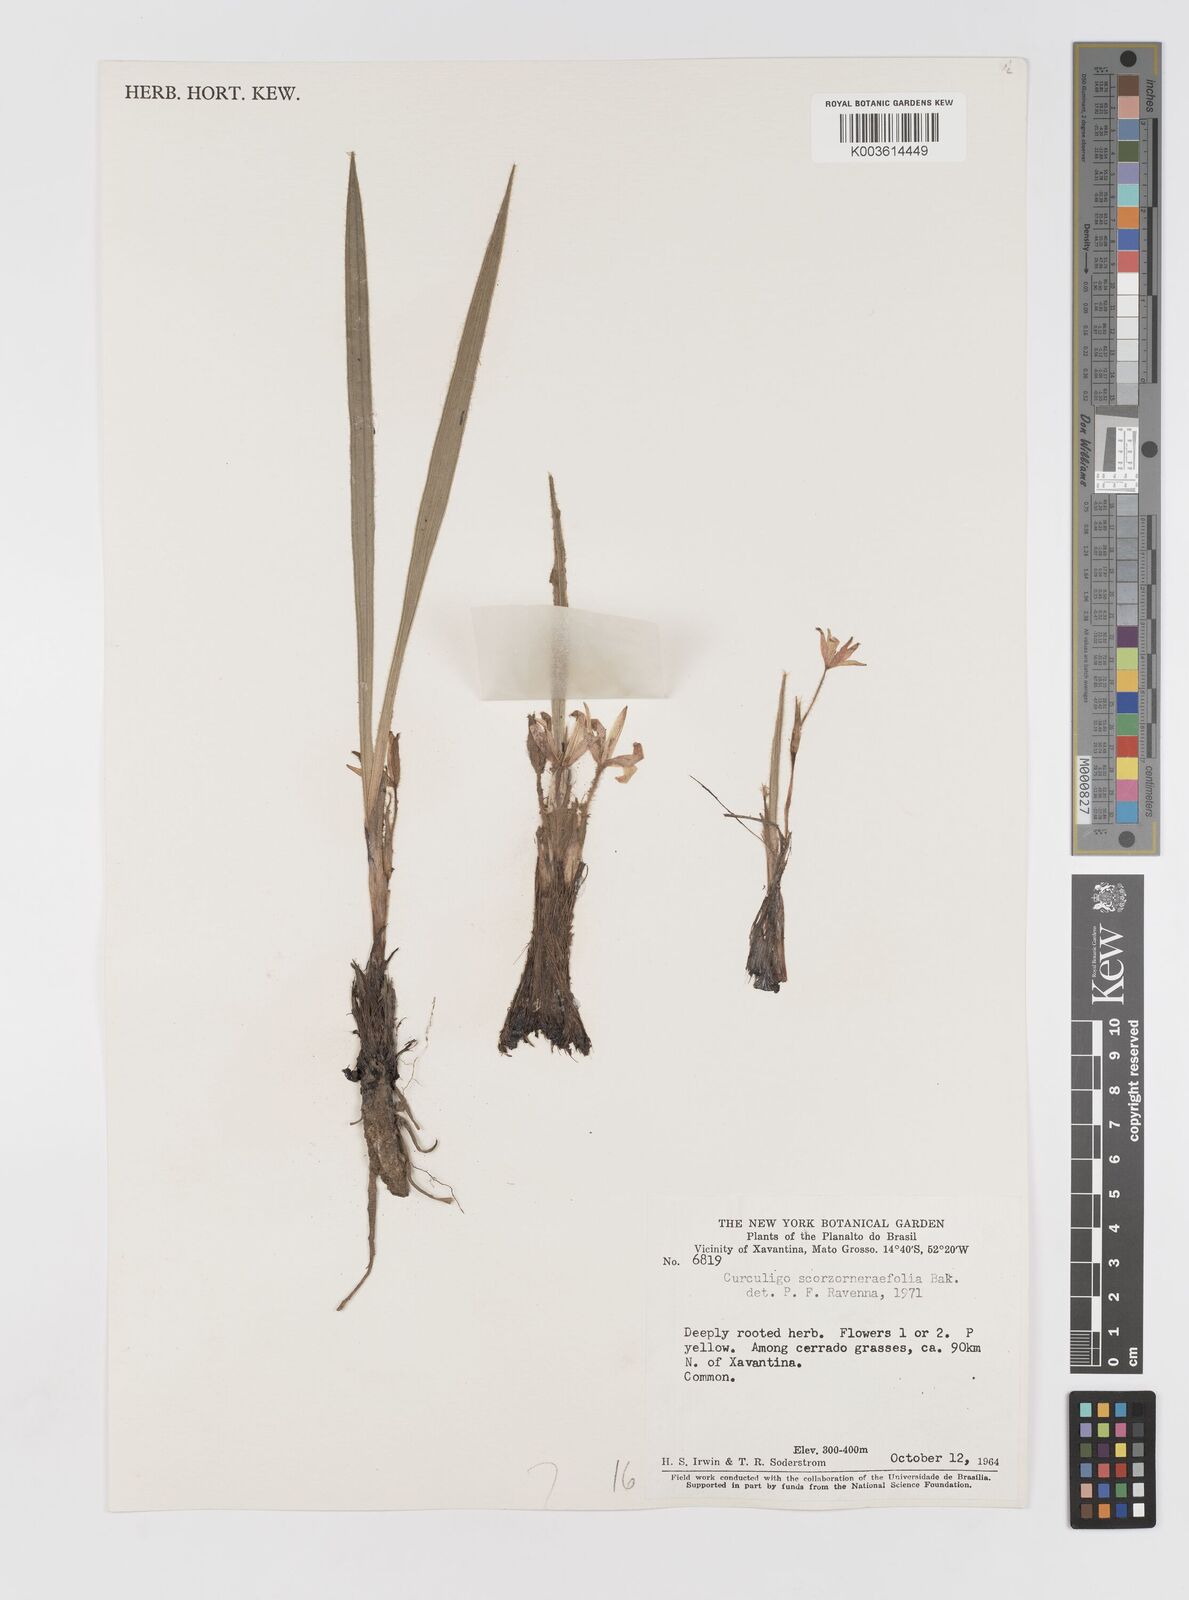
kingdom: Plantae
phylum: Tracheophyta
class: Liliopsida
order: Asparagales
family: Hypoxidaceae
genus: Curculigo
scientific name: Curculigo scorzonerifolia
